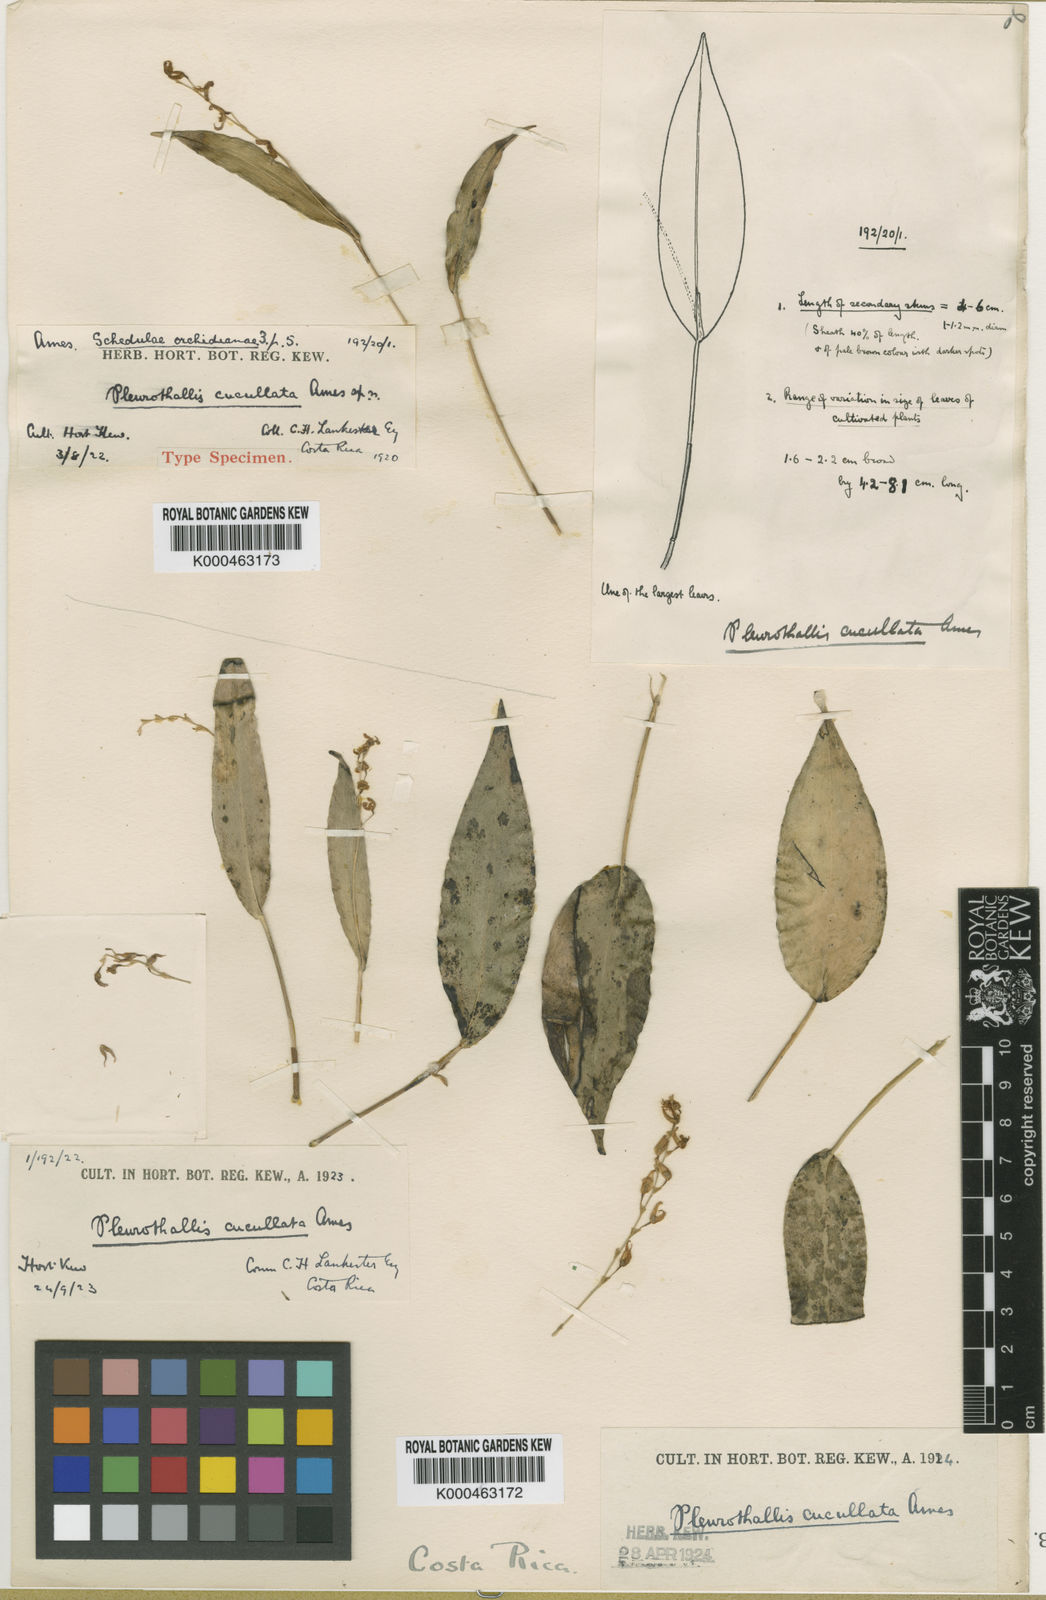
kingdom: Plantae
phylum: Tracheophyta
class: Liliopsida
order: Asparagales
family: Orchidaceae
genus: Pleurothallis
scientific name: Pleurothallis rowleei
